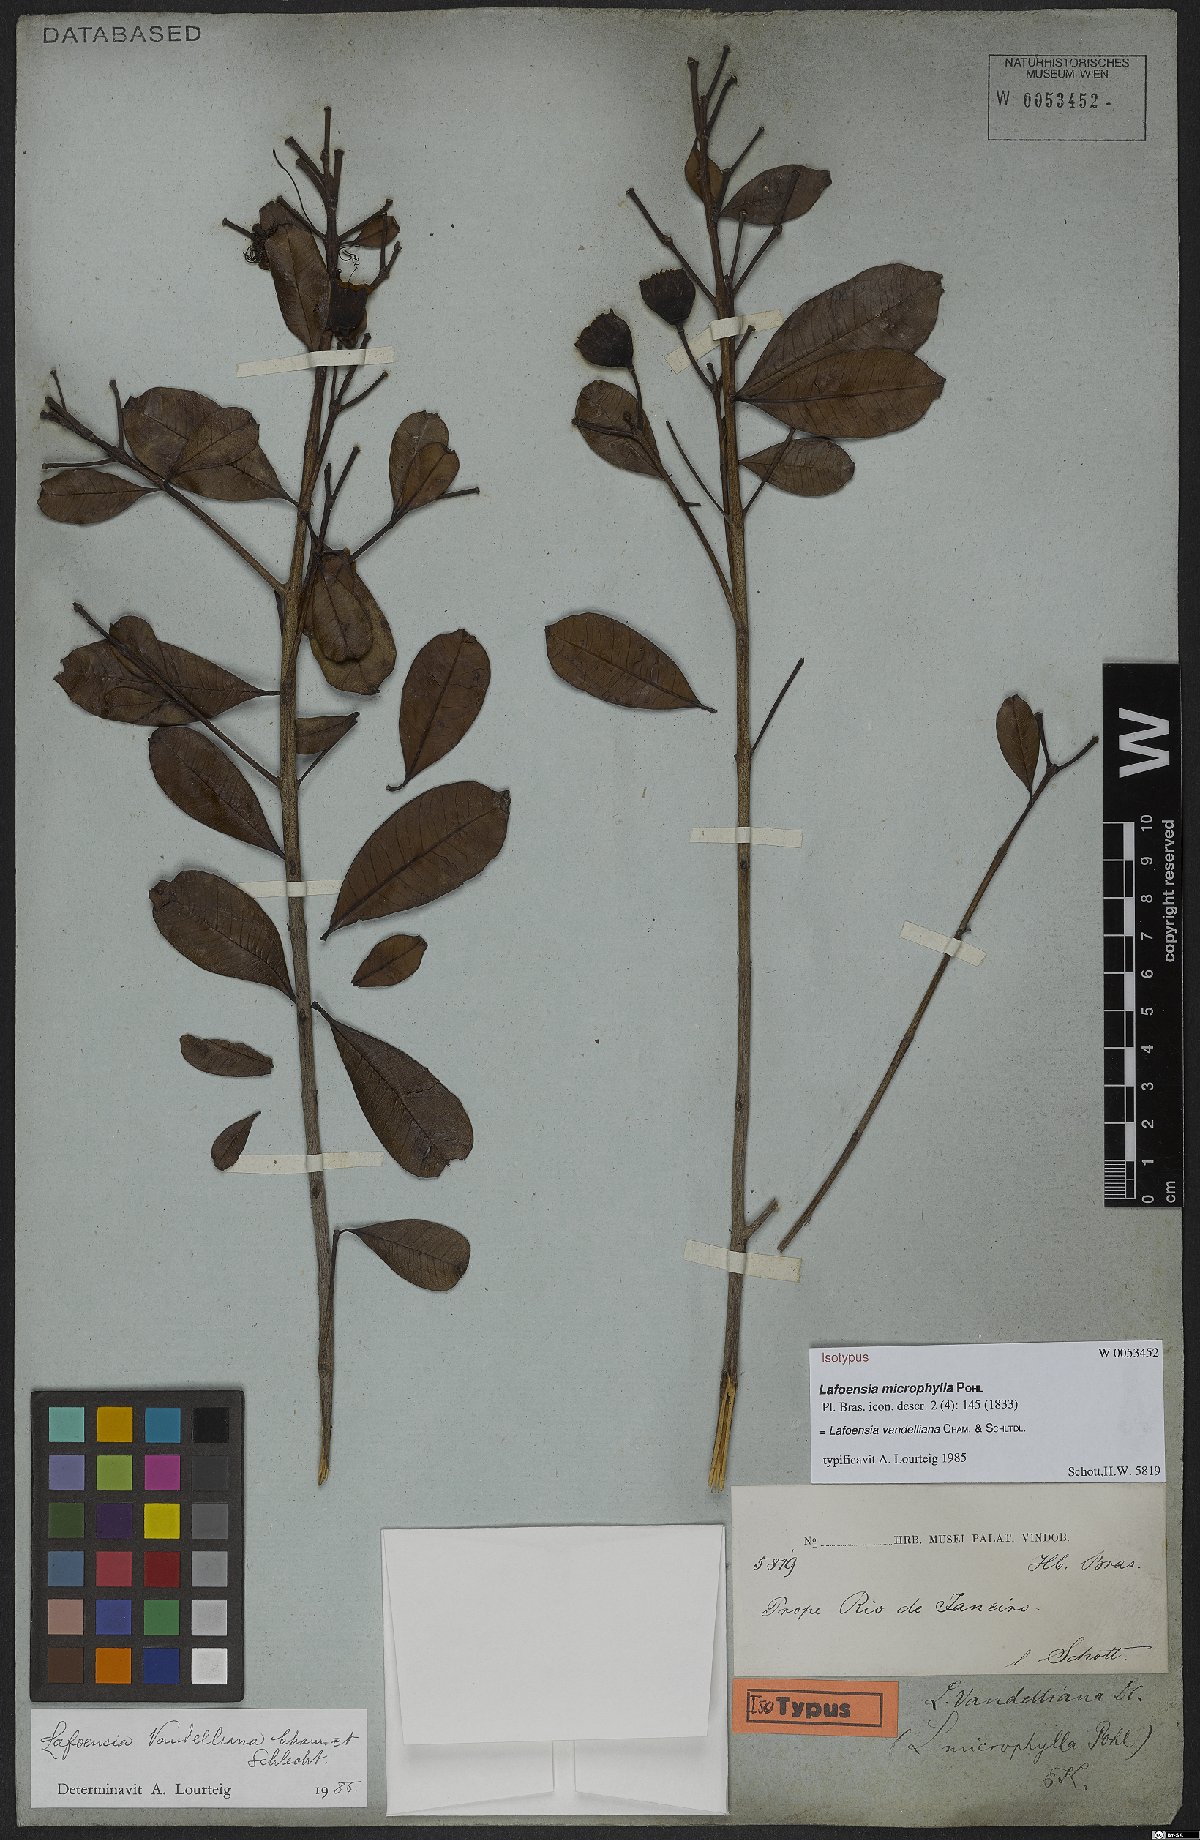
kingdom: Plantae
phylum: Tracheophyta
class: Magnoliopsida
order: Myrtales
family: Lythraceae
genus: Lafoensia
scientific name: Lafoensia vandelliana
